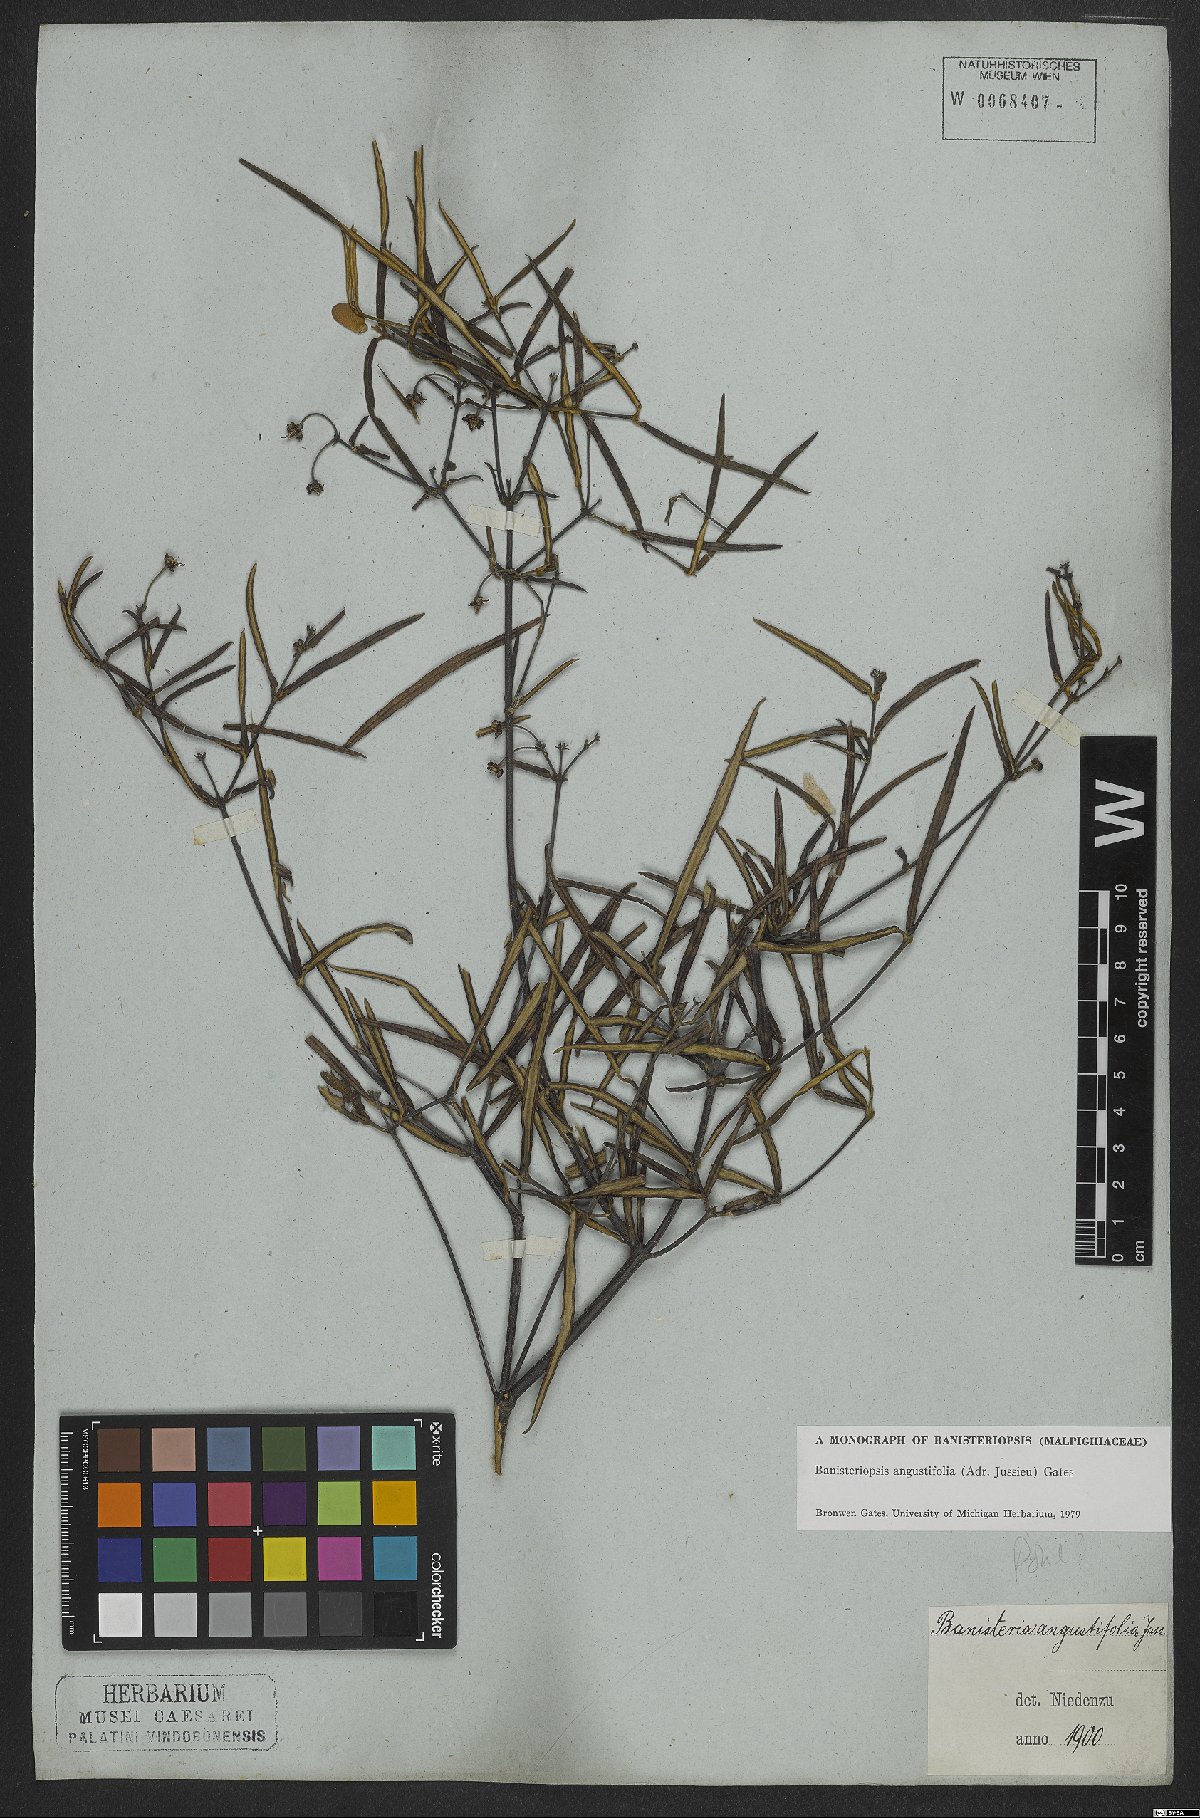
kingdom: Plantae
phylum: Tracheophyta
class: Magnoliopsida
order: Malpighiales
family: Malpighiaceae
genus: Banisteriopsis
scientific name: Banisteriopsis angustifolia
